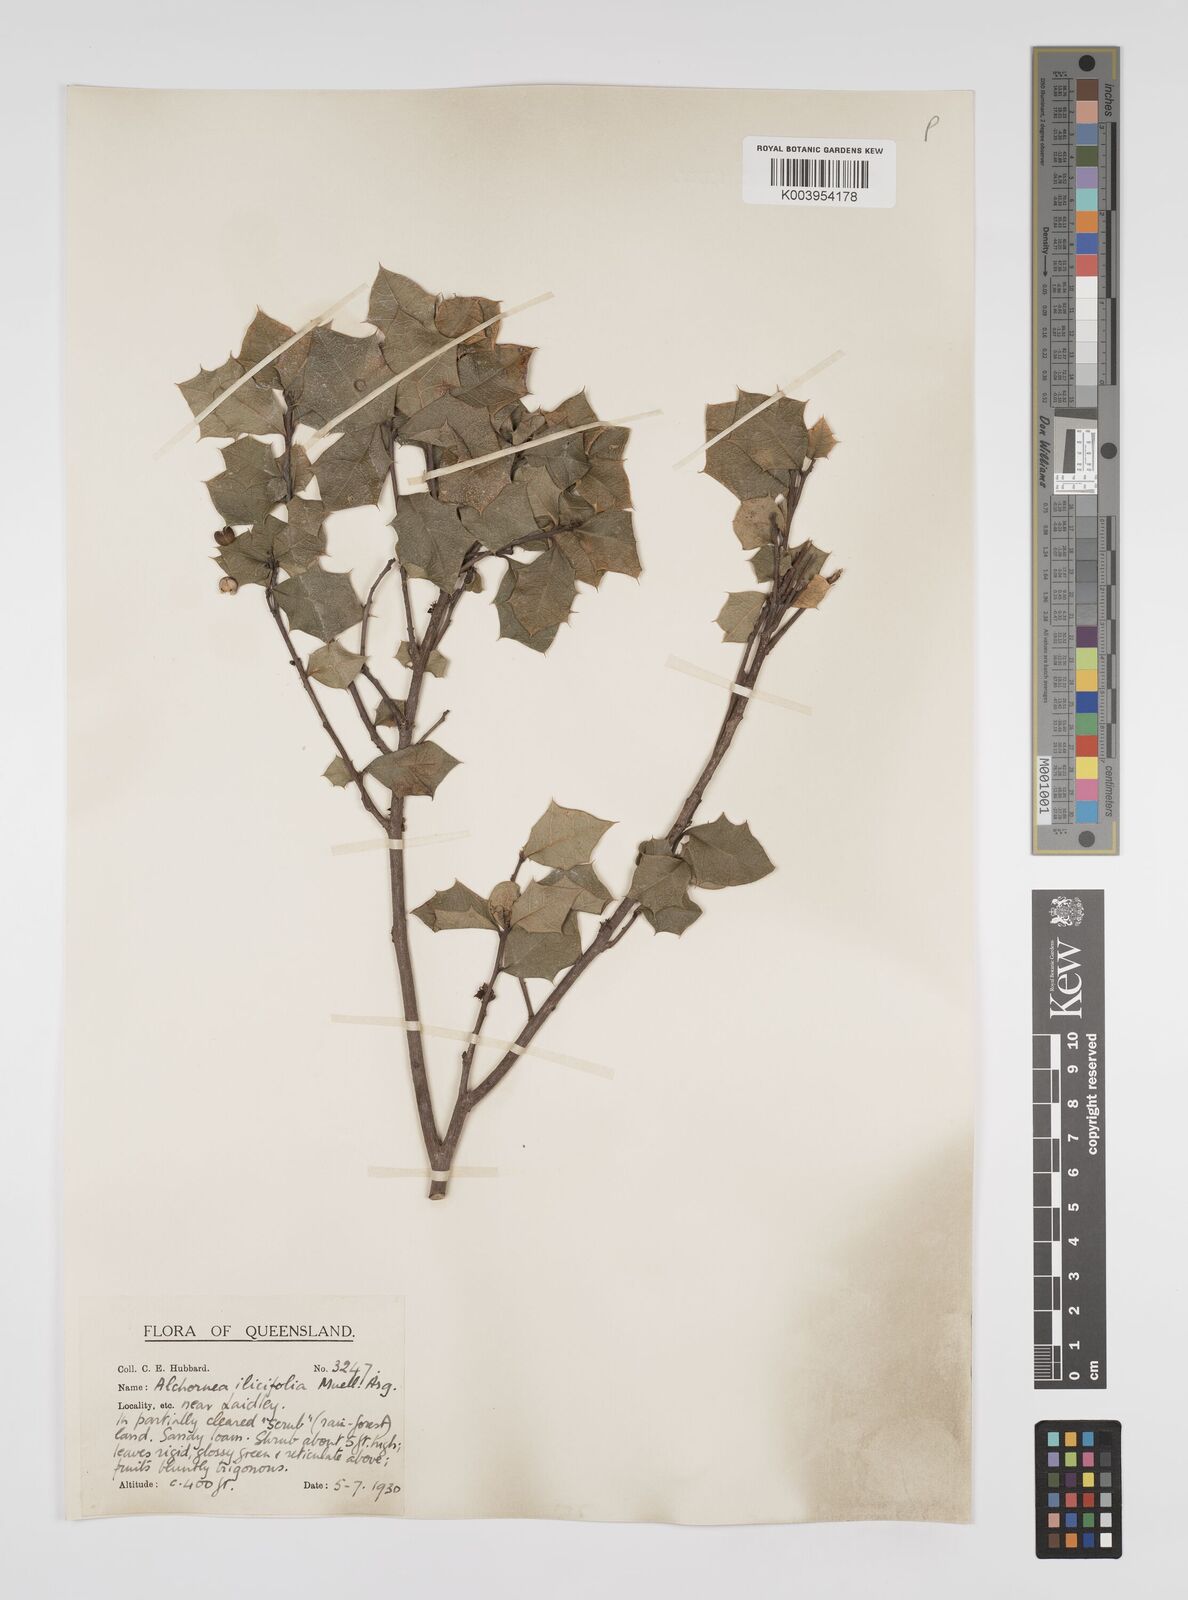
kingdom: Plantae
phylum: Tracheophyta
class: Magnoliopsida
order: Malpighiales
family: Euphorbiaceae
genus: Alchornea
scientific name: Alchornea ilicifolia
